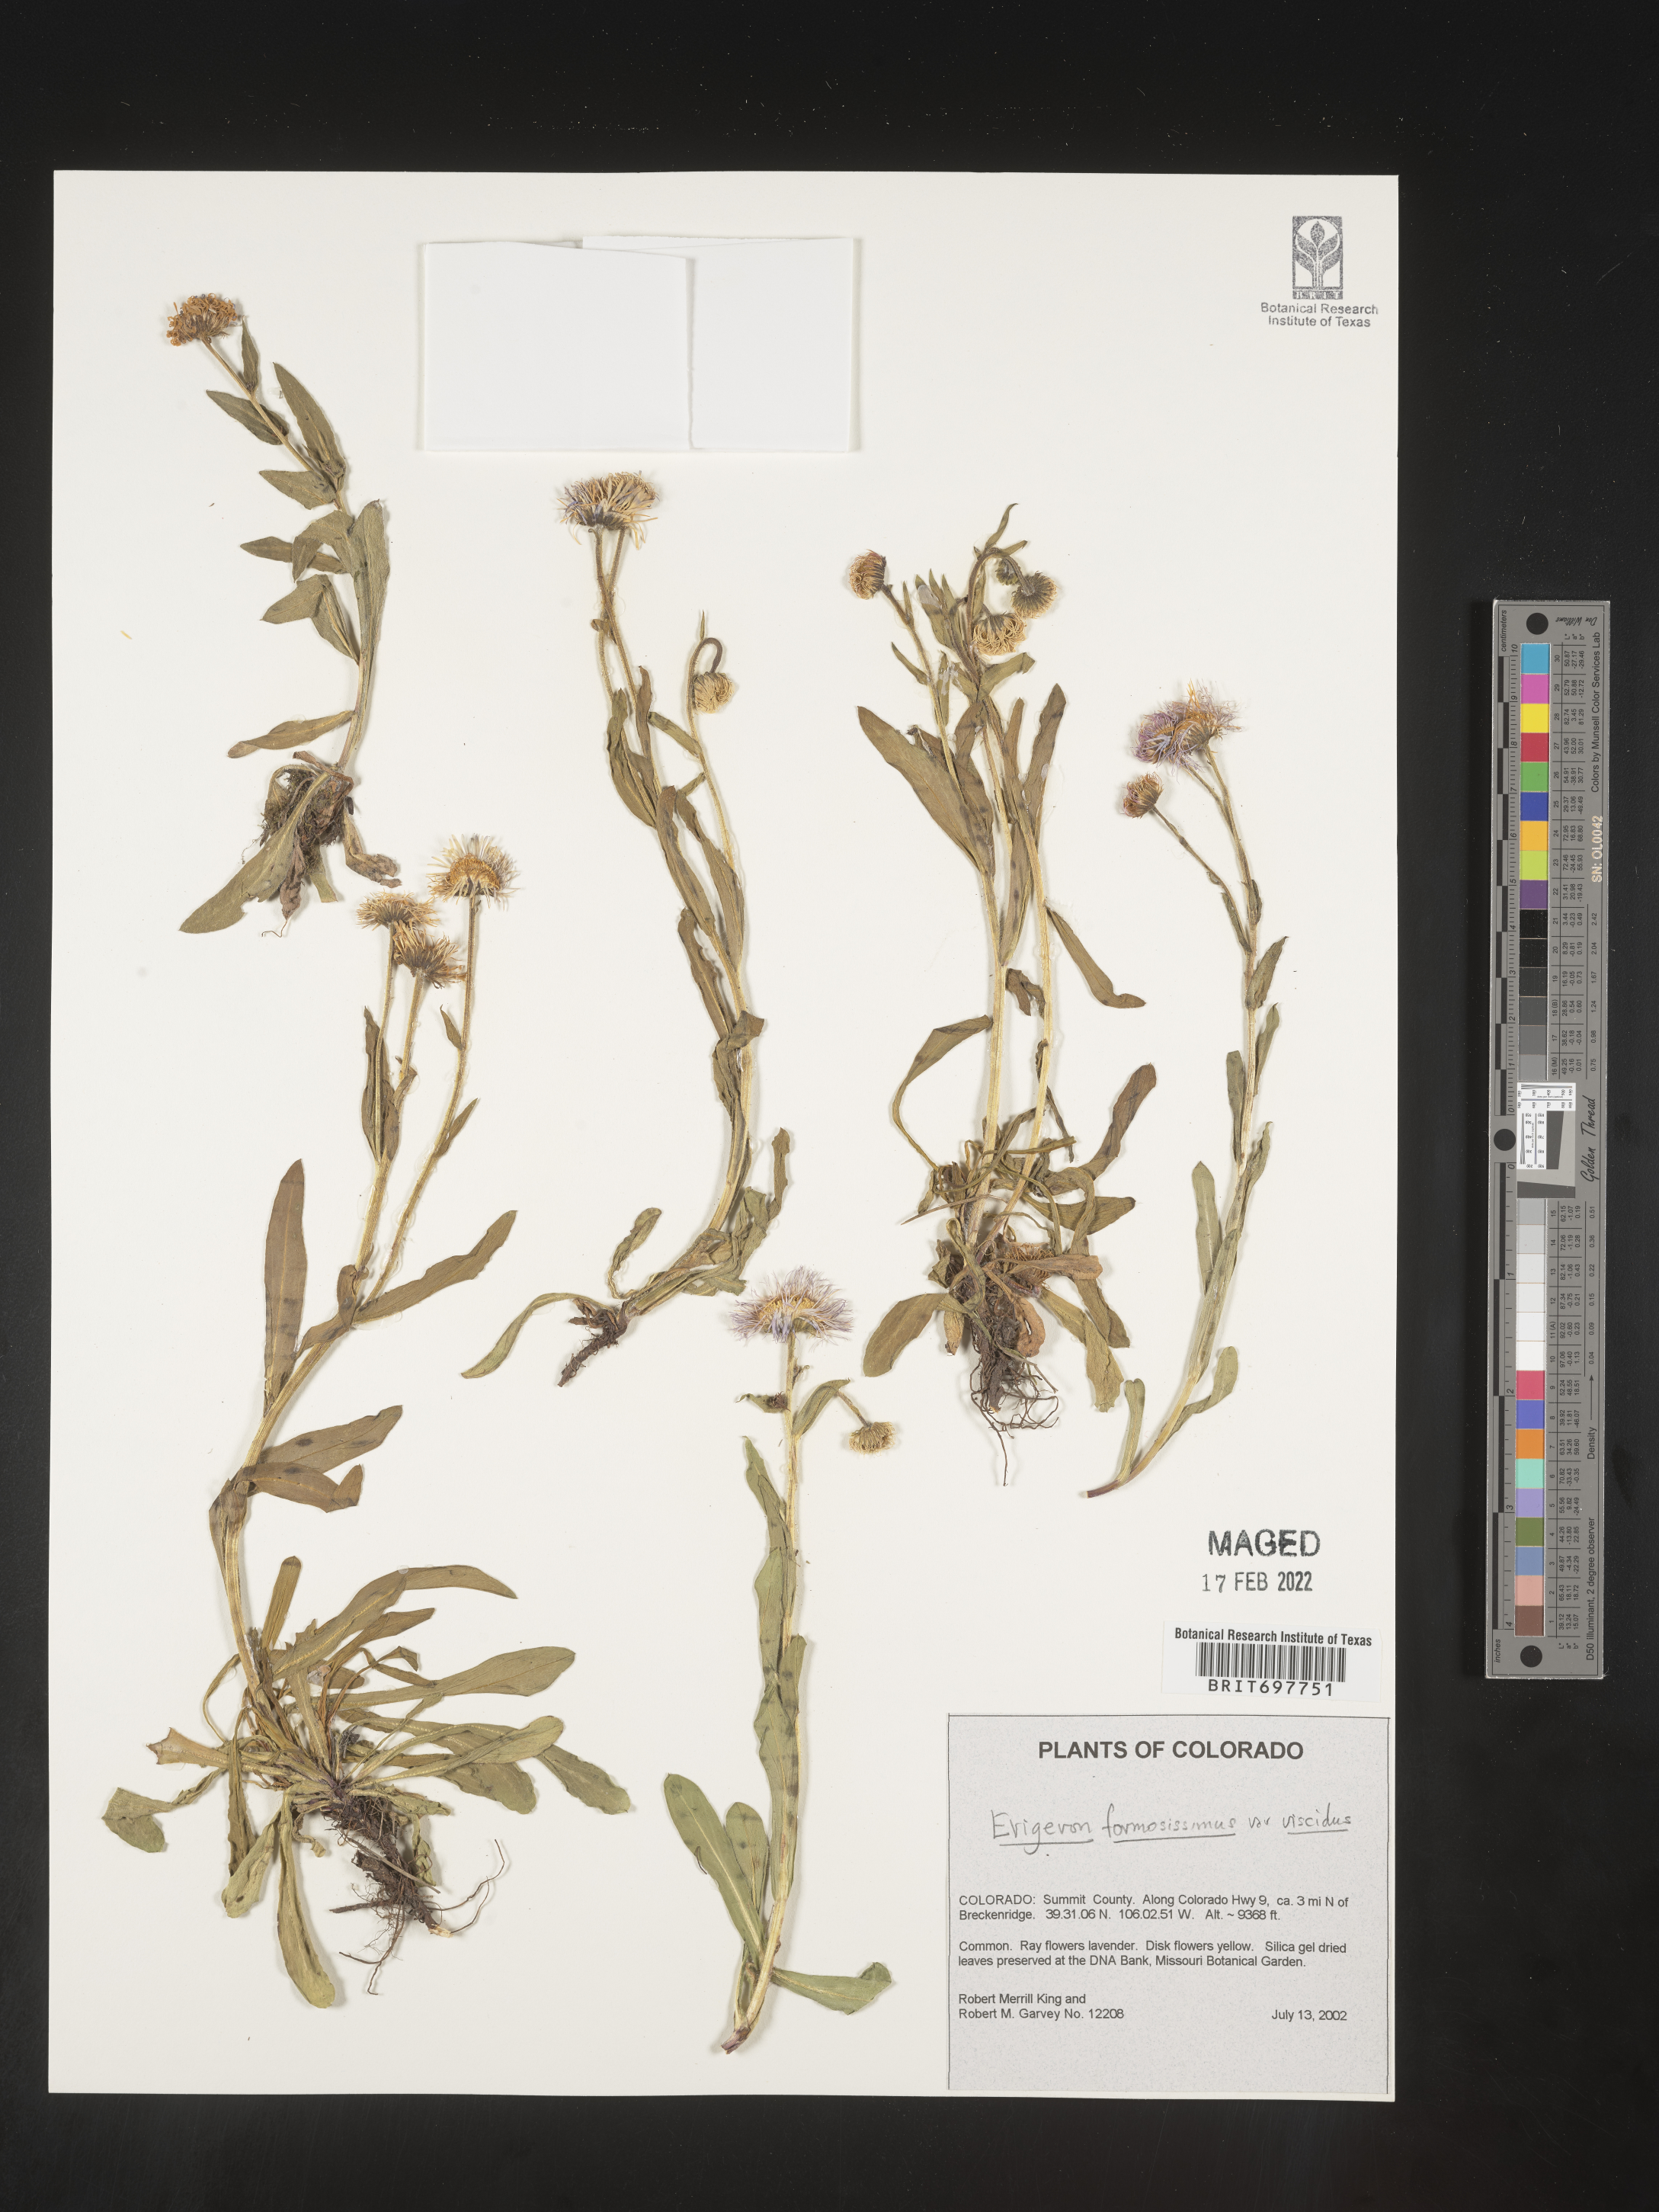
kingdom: Plantae
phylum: Tracheophyta
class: Magnoliopsida
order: Asterales
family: Asteraceae
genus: Erigeron
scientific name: Erigeron formosissimus
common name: Beautiful fleabane
